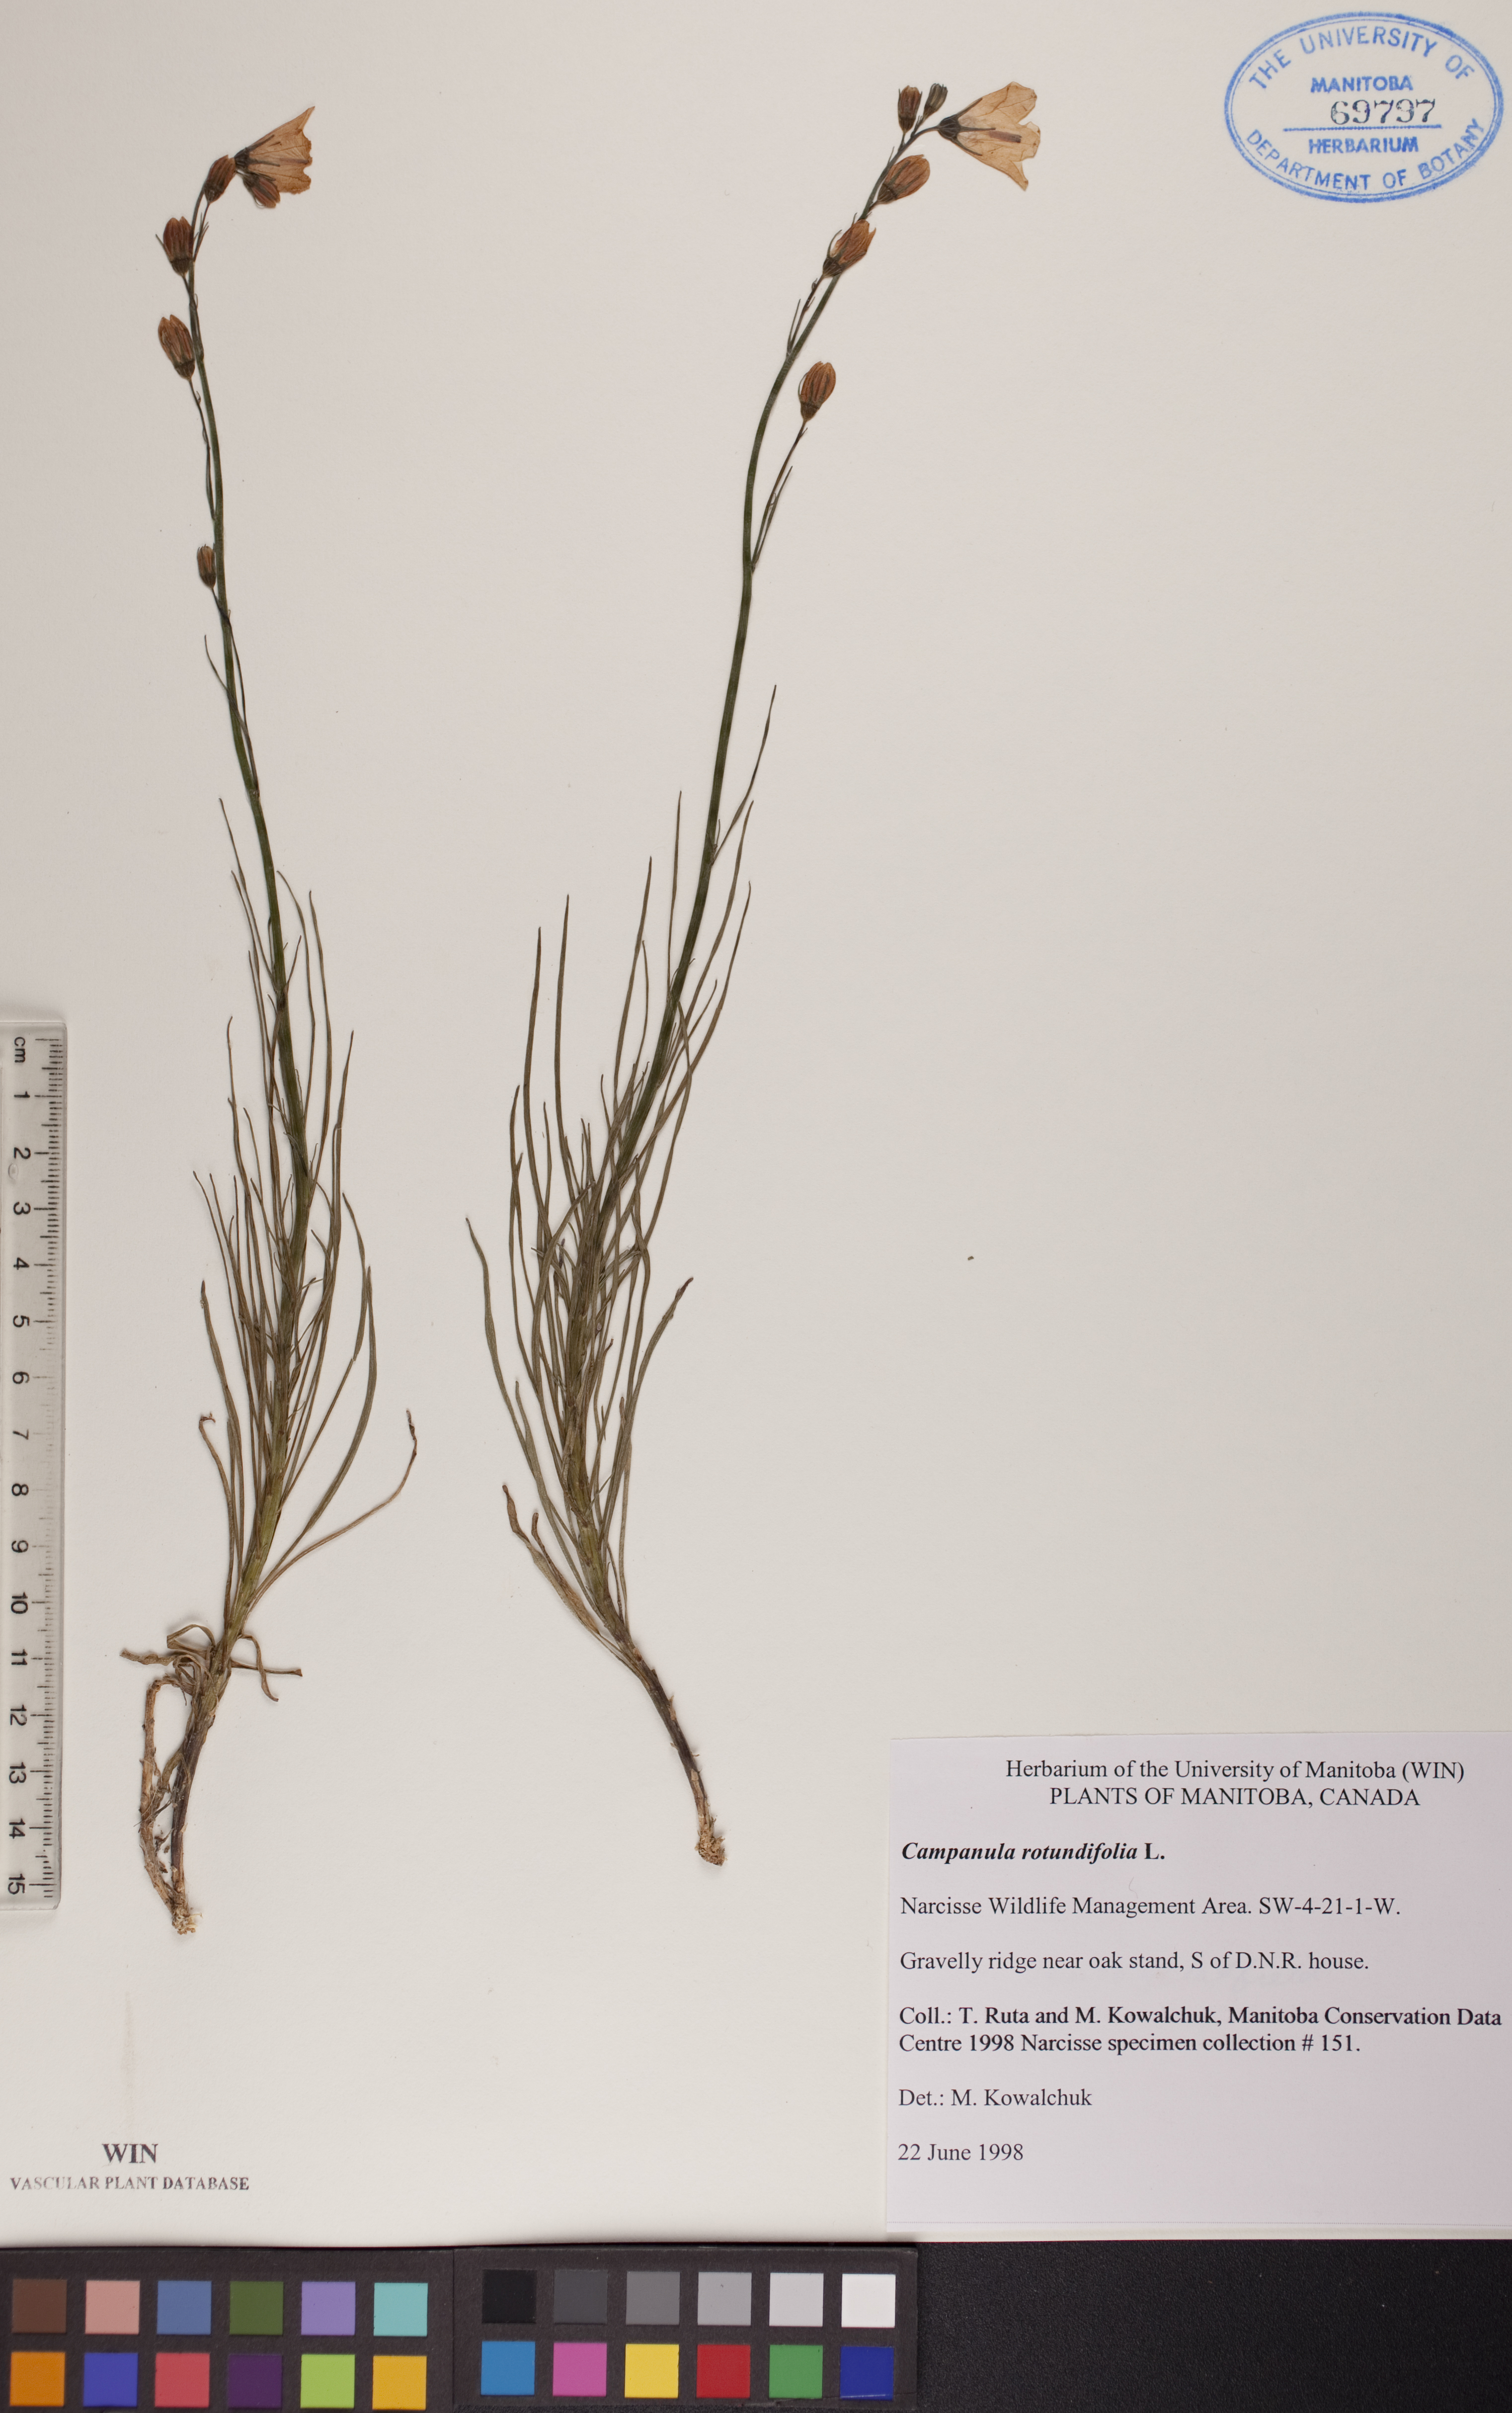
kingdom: Plantae
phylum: Tracheophyta
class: Magnoliopsida
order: Asterales
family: Campanulaceae
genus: Campanula
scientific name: Campanula rotundifolia
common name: Harebell
